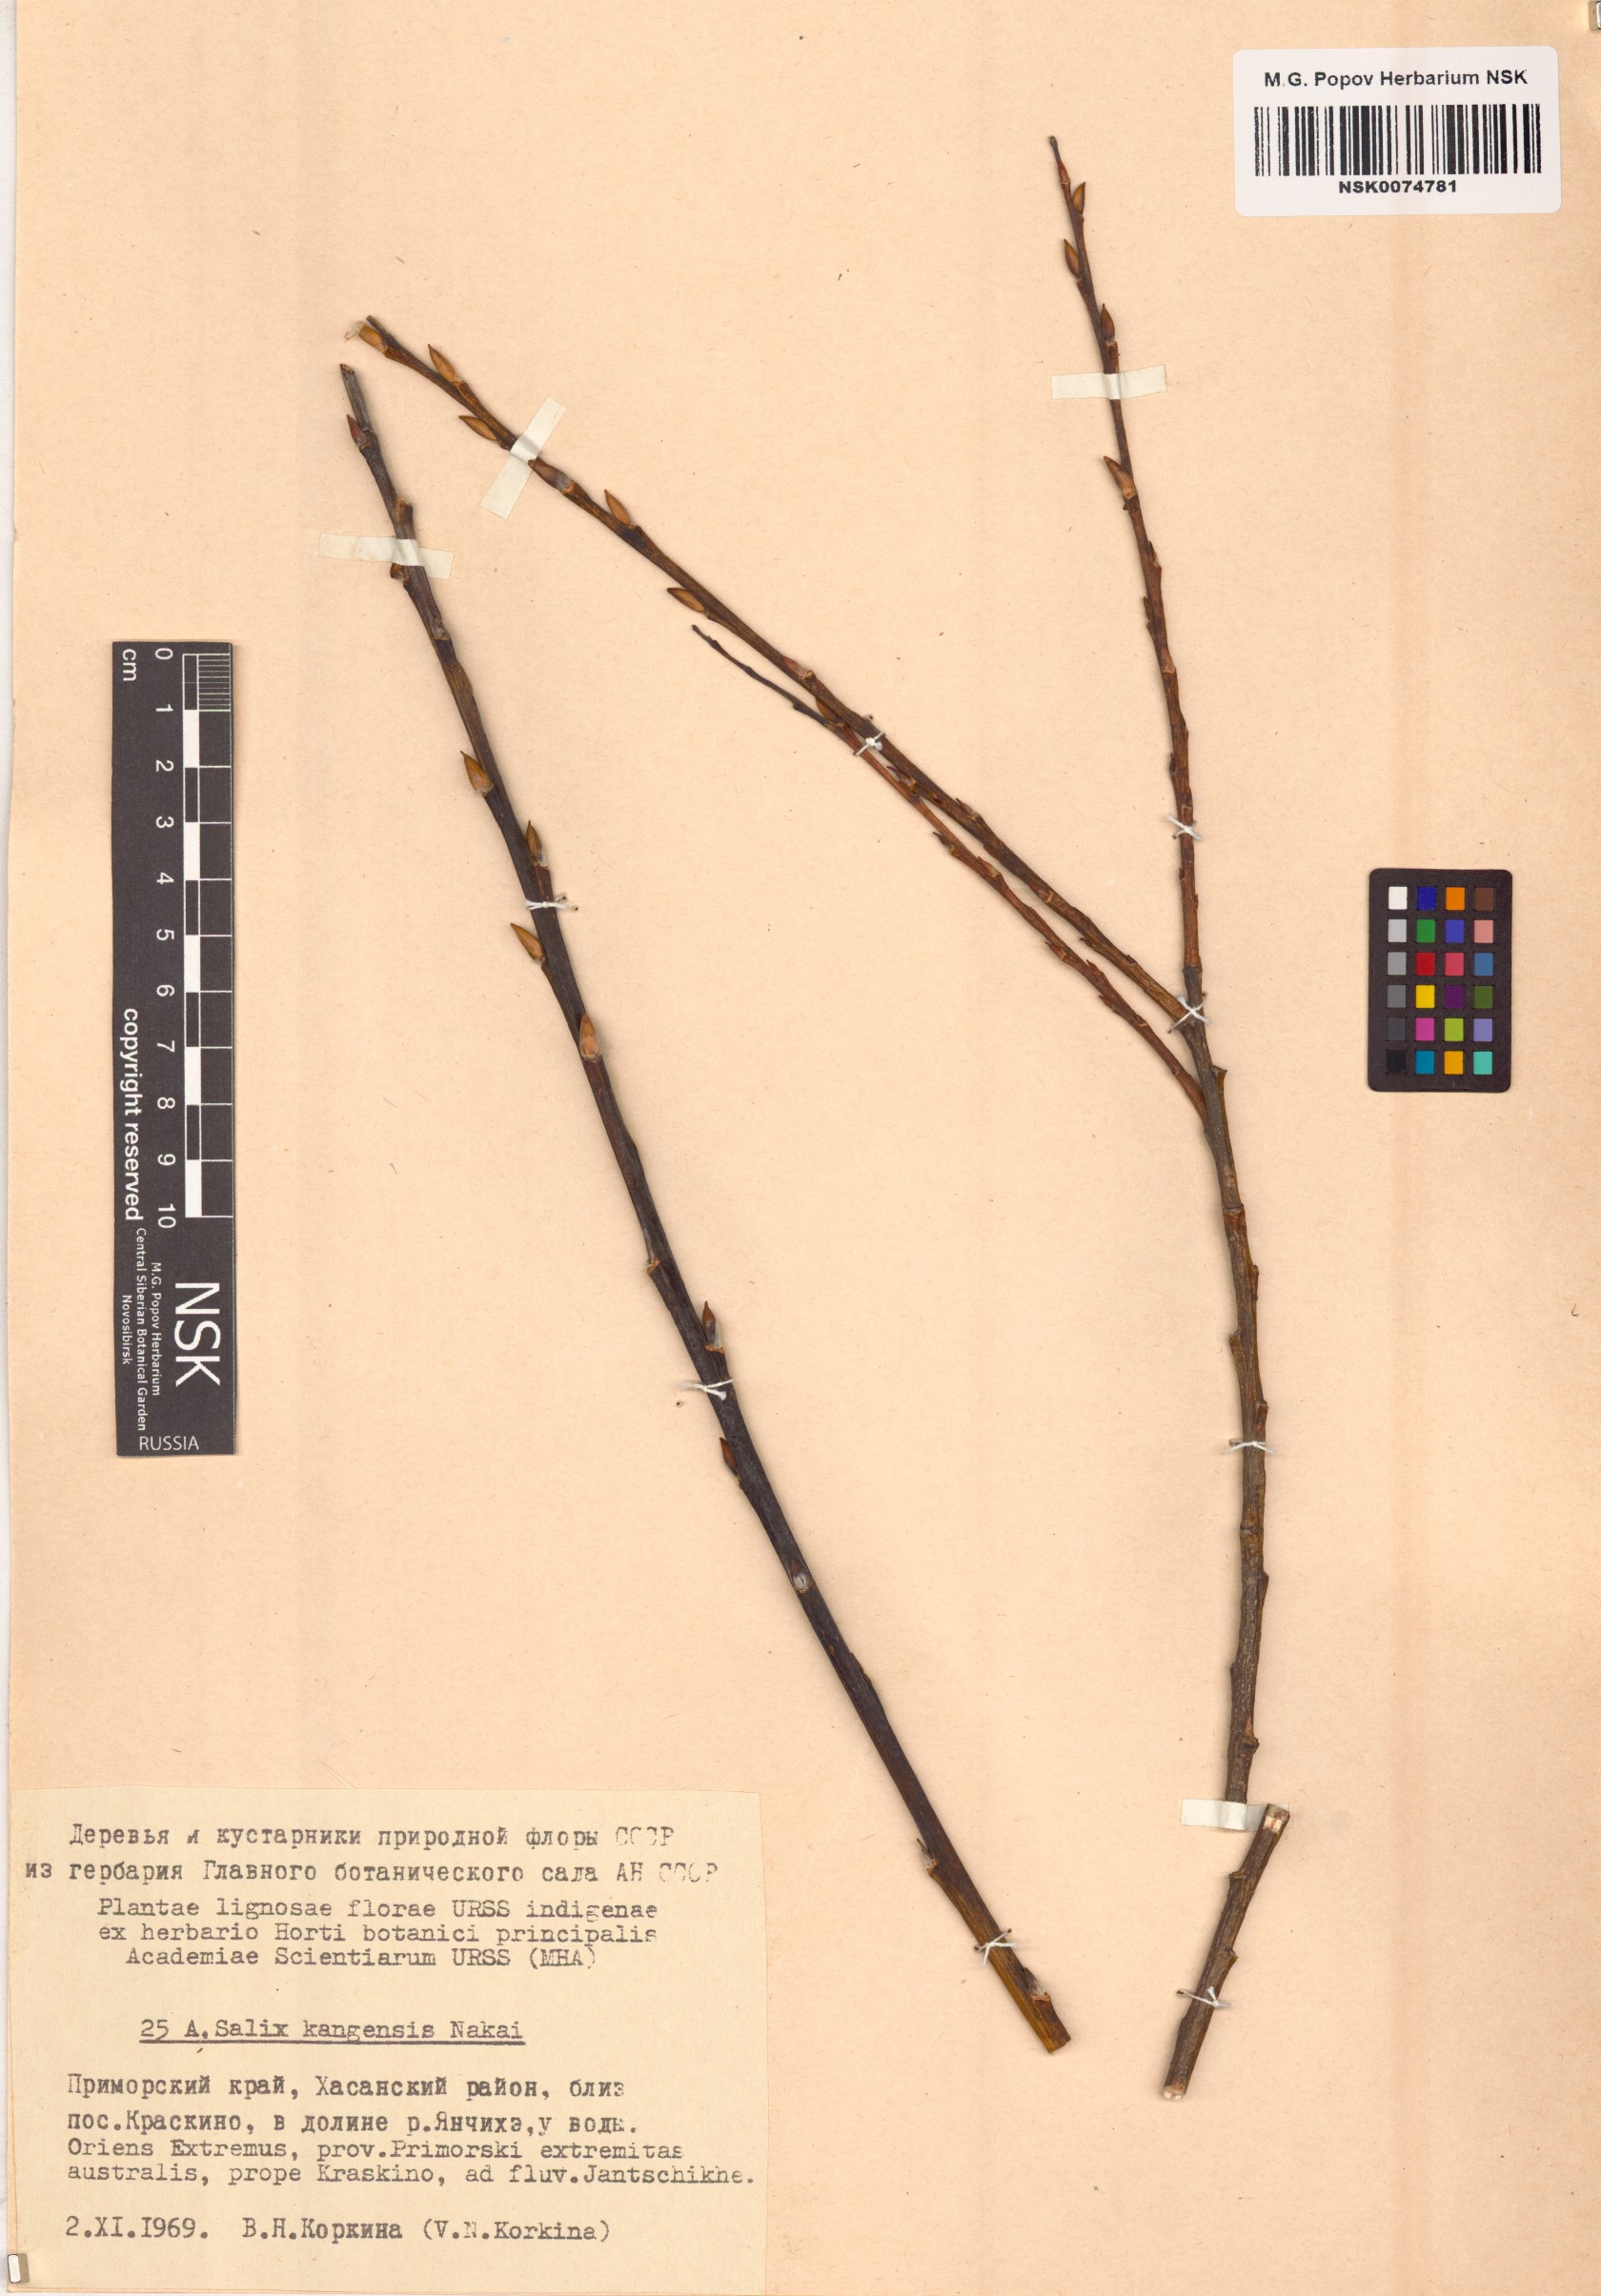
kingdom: Plantae
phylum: Tracheophyta
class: Magnoliopsida
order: Malpighiales
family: Salicaceae
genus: Salix
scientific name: Salix kangensis
